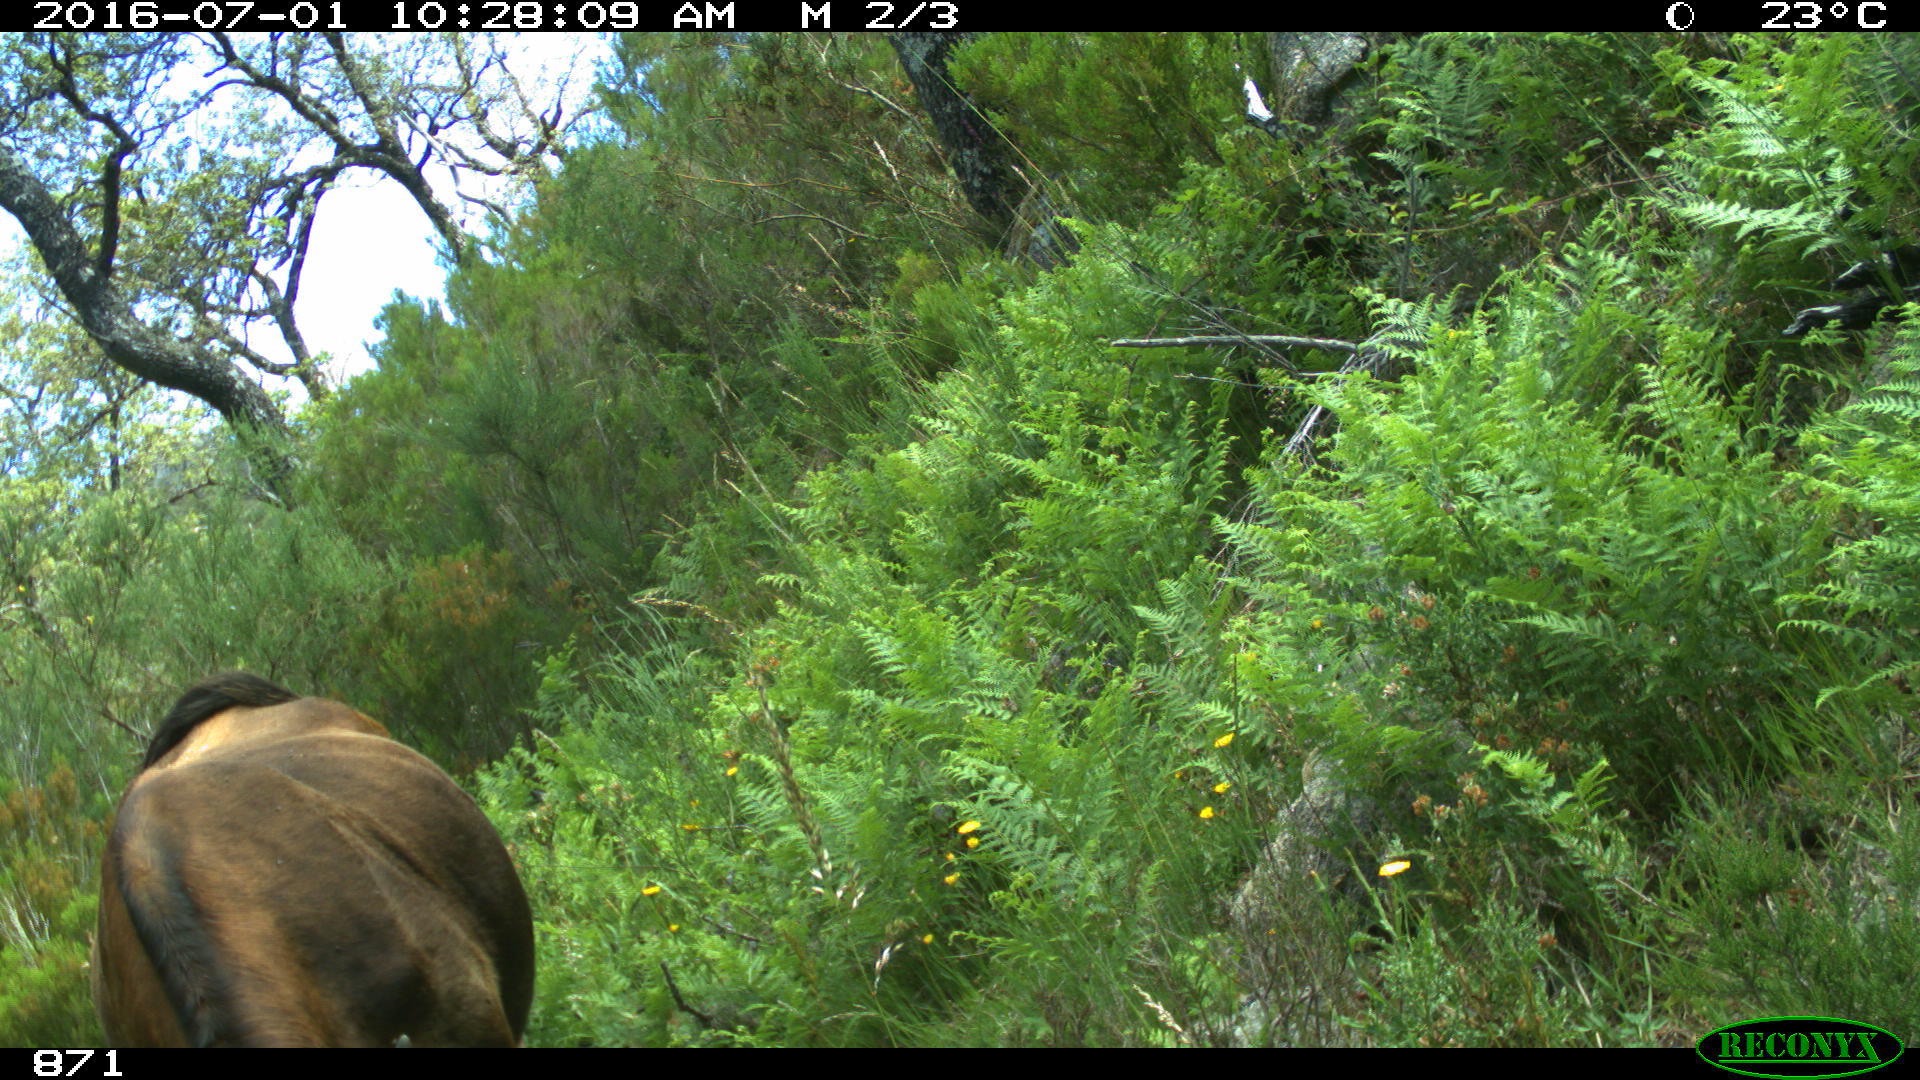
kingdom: Animalia
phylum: Chordata
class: Mammalia
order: Artiodactyla
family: Bovidae
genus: Bos
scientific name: Bos taurus
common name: Domesticated cattle
